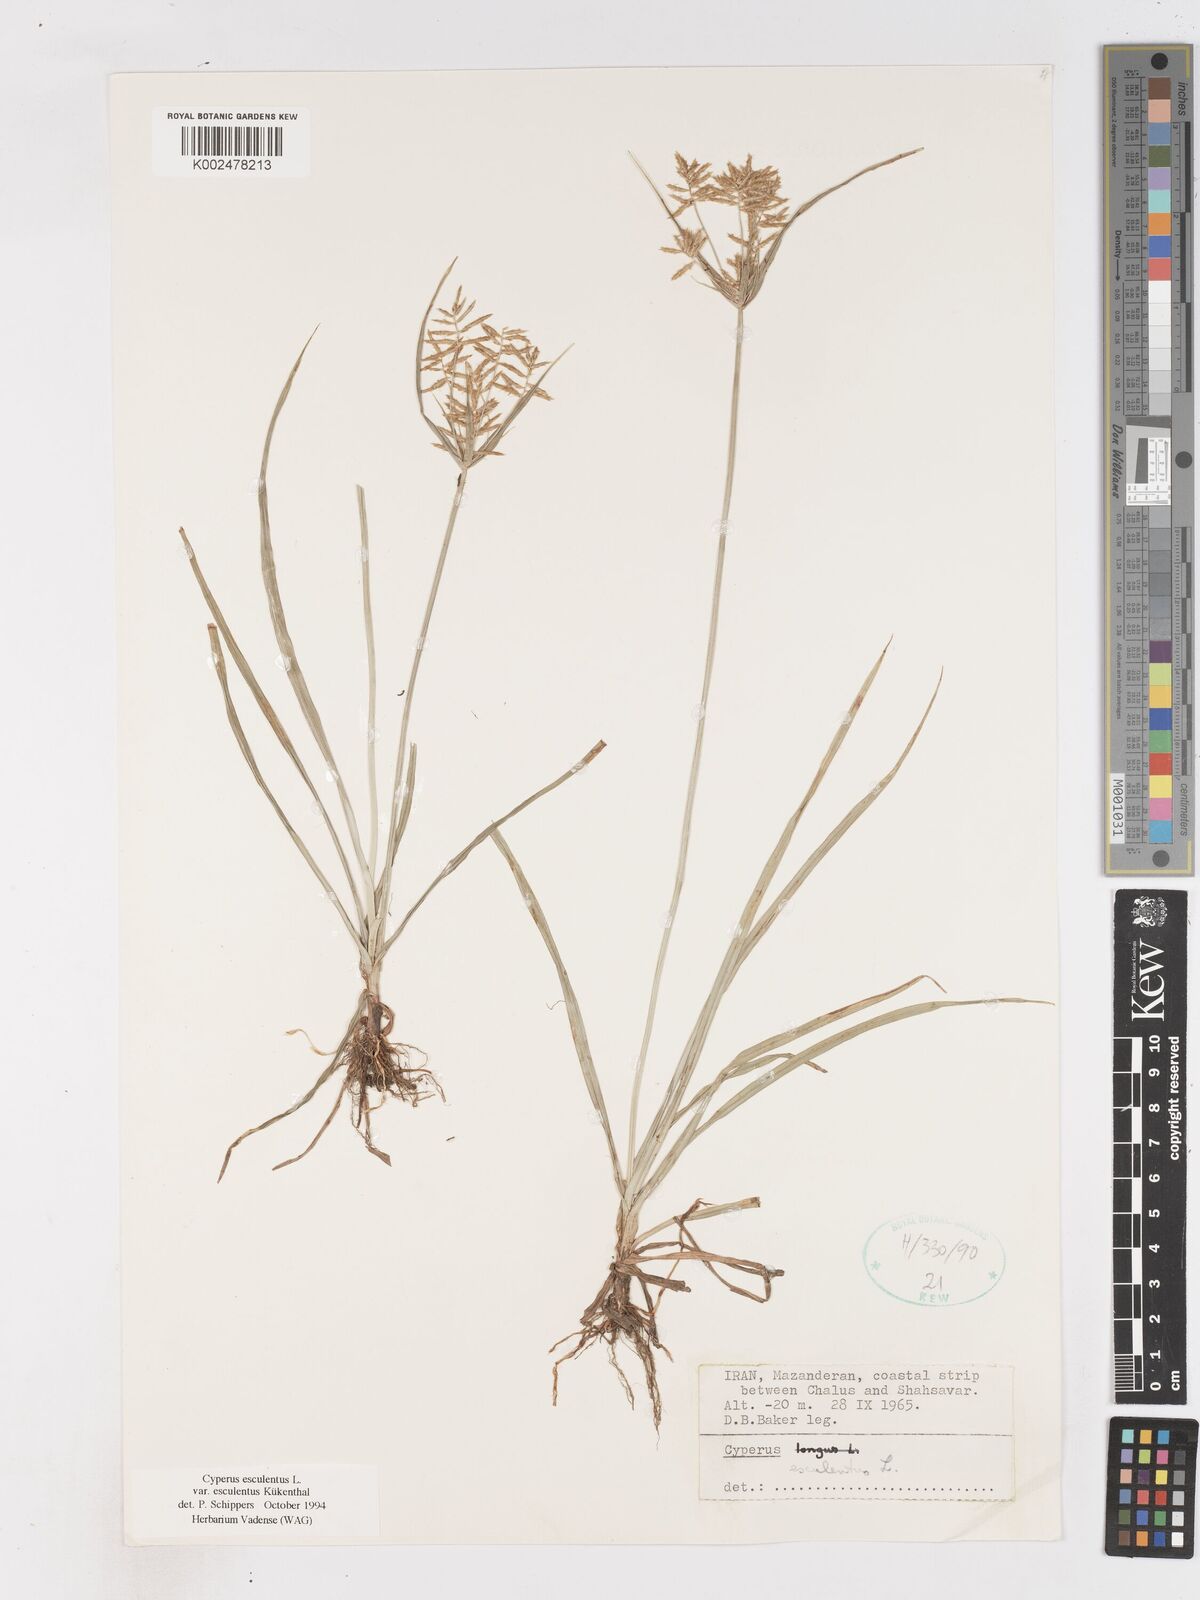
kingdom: Plantae
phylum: Tracheophyta
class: Liliopsida
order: Poales
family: Cyperaceae
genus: Cyperus
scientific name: Cyperus esculentus
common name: Yellow nutsedge
